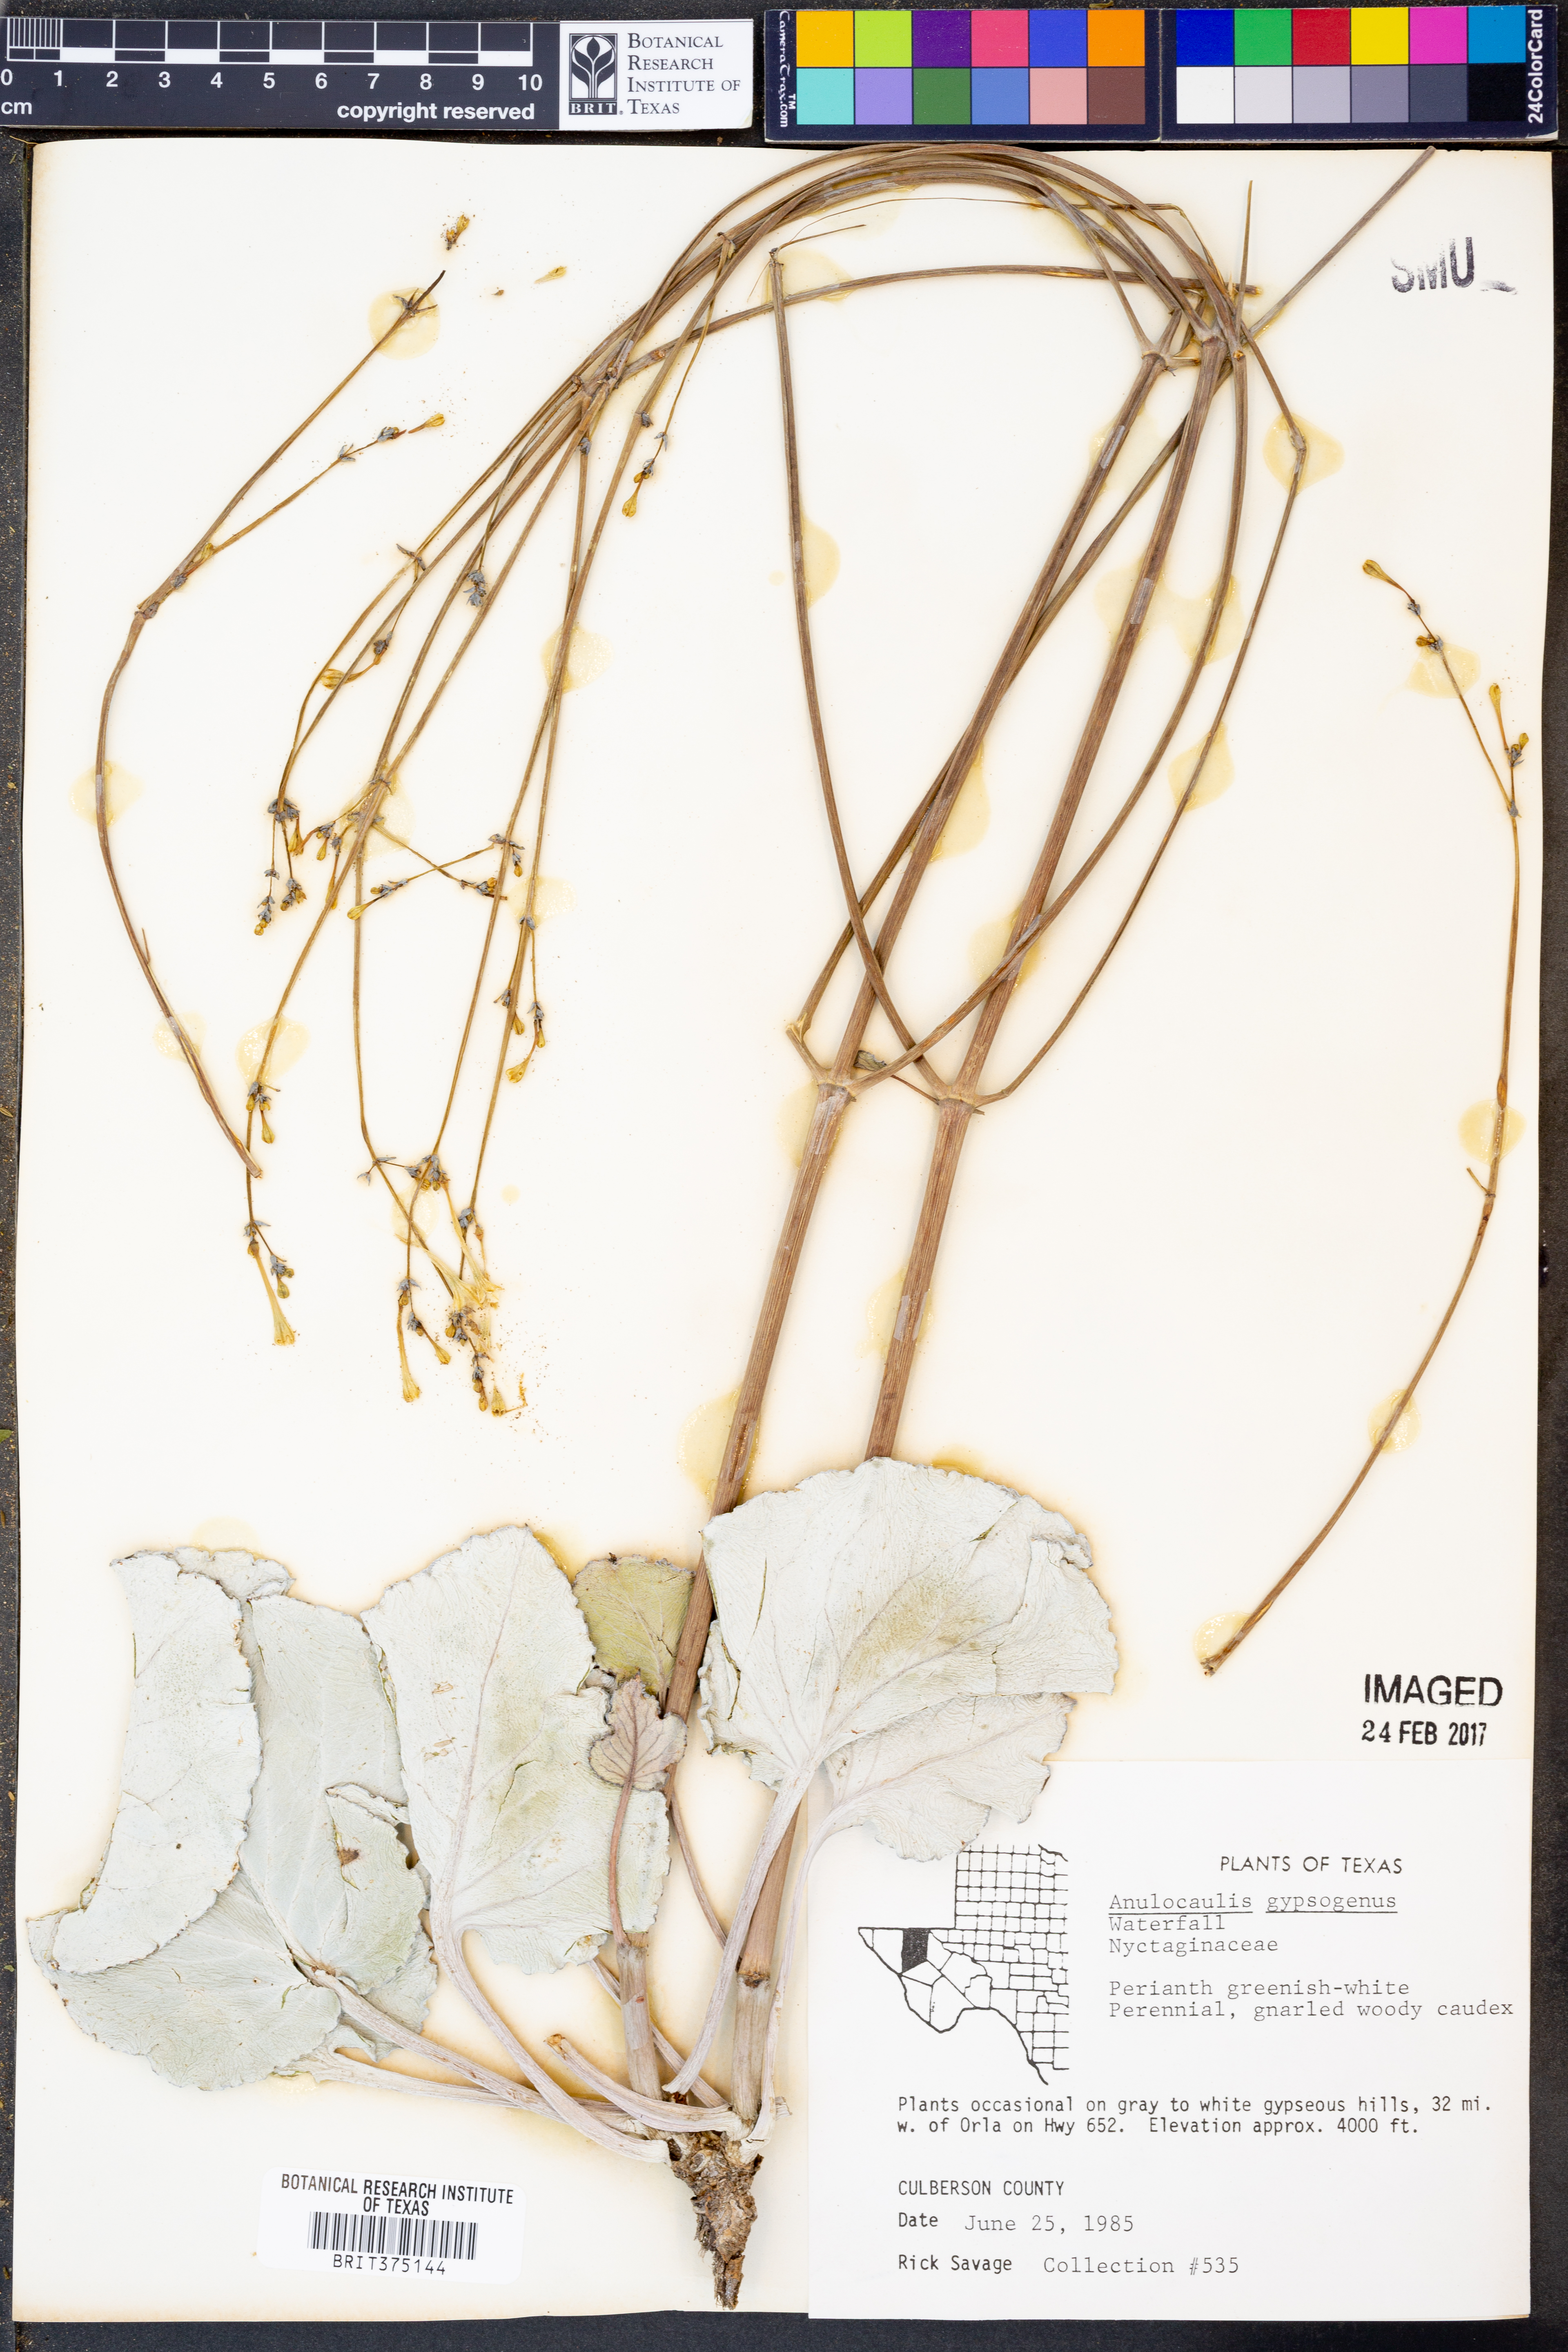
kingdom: Plantae
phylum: Tracheophyta
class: Magnoliopsida
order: Caryophyllales
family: Nyctaginaceae
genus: Anulocaulis
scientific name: Anulocaulis leiosolenus
